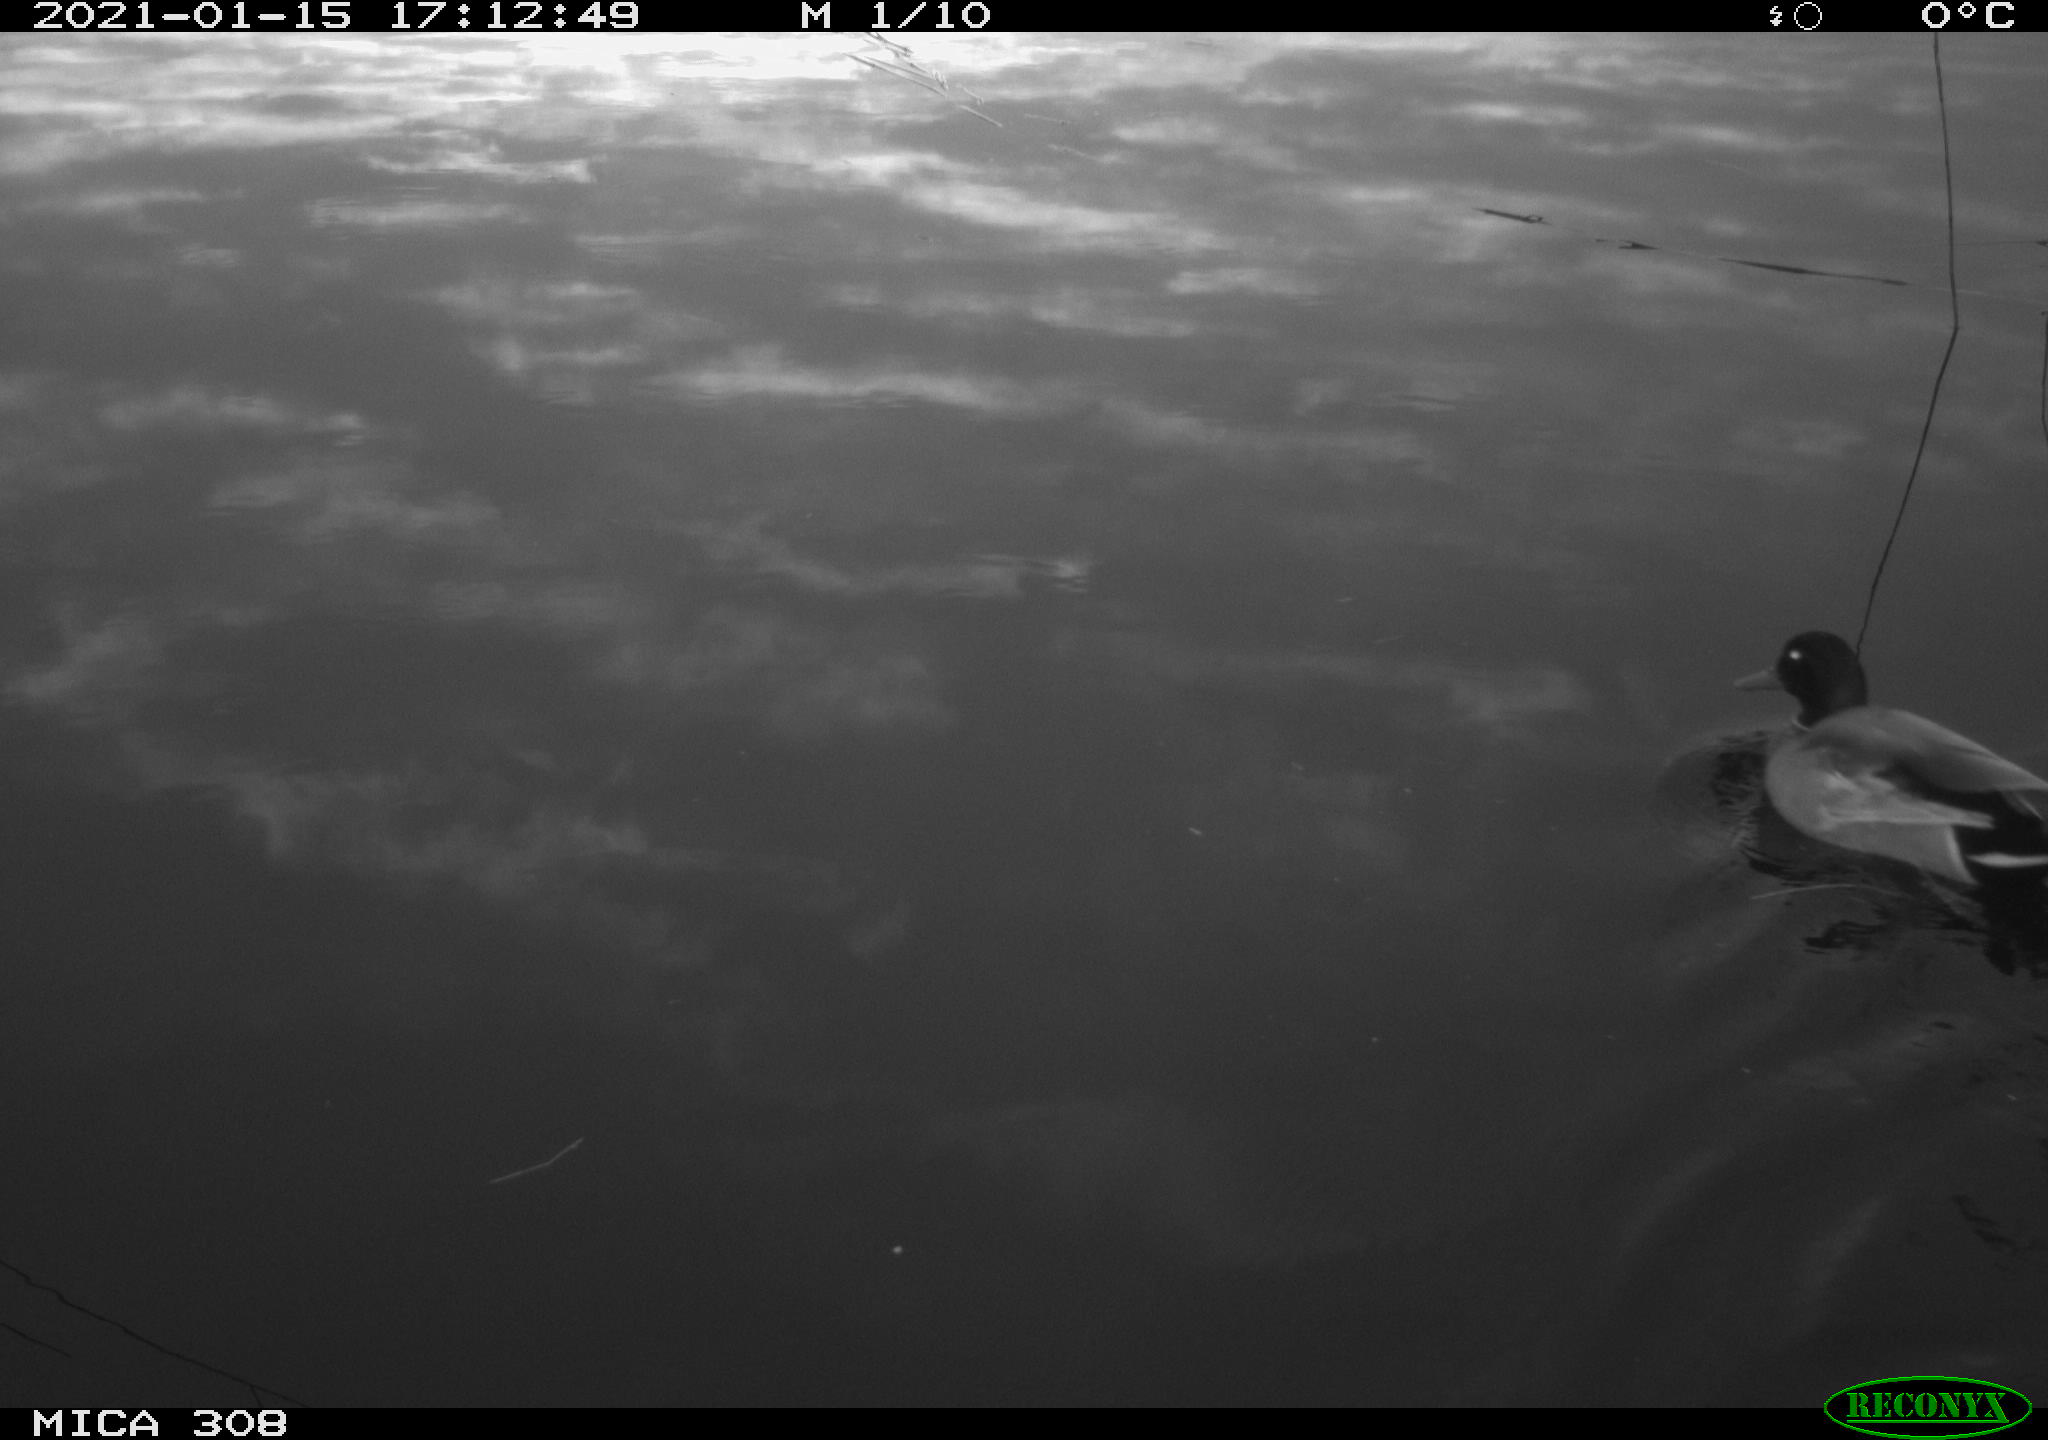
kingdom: Animalia
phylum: Chordata
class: Aves
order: Anseriformes
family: Anatidae
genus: Anas
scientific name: Anas platyrhynchos
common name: Mallard
